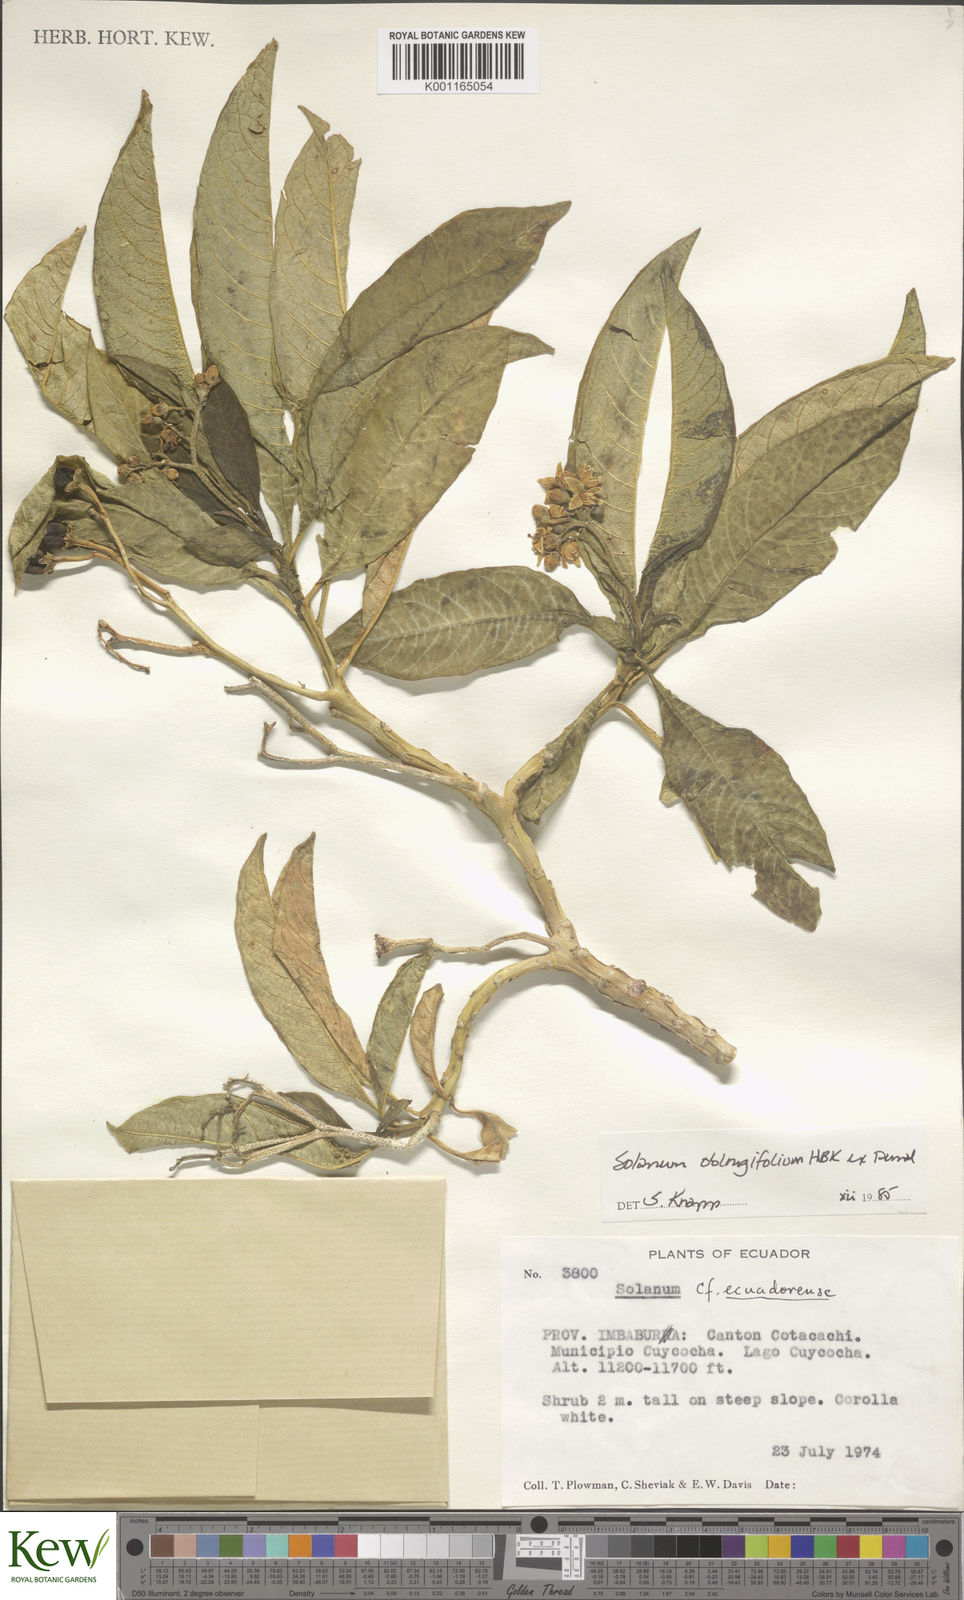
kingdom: Plantae
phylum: Tracheophyta
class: Magnoliopsida
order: Solanales
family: Solanaceae
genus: Solanum
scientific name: Solanum oblongifolium
